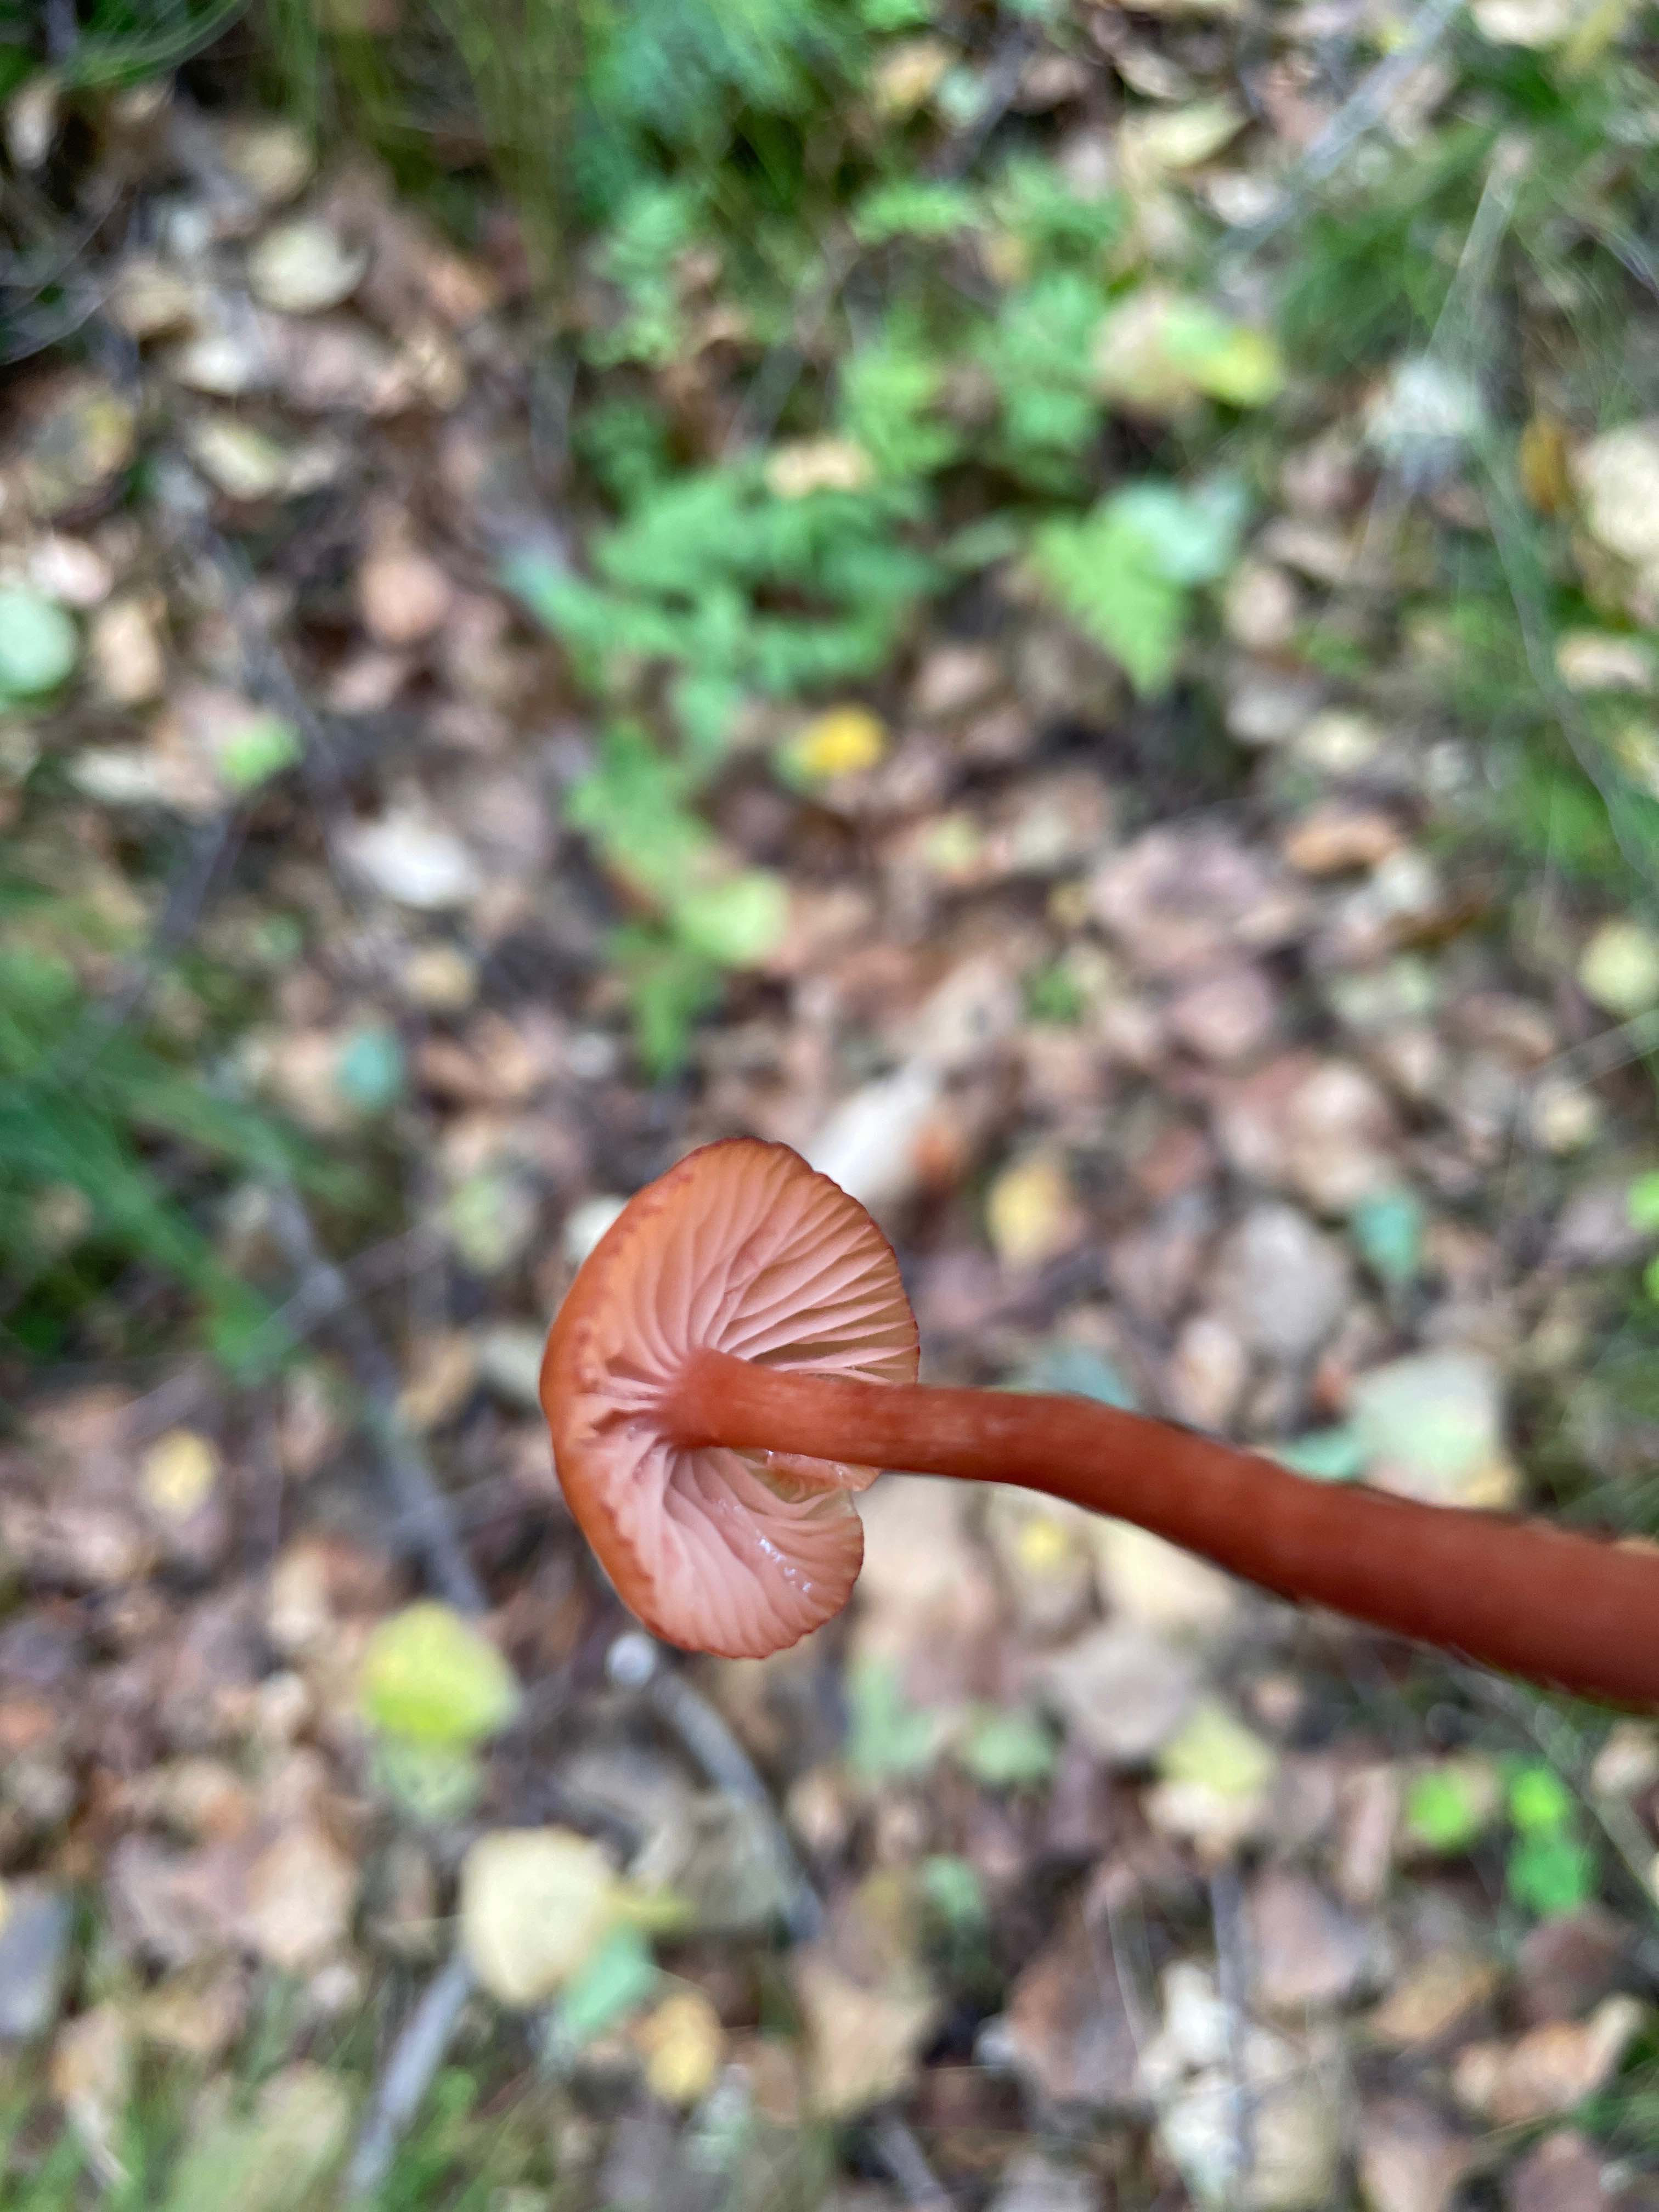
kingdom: Fungi
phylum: Basidiomycota
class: Agaricomycetes
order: Agaricales
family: Hydnangiaceae
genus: Laccaria
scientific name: Laccaria laccata
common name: rød ametysthat
